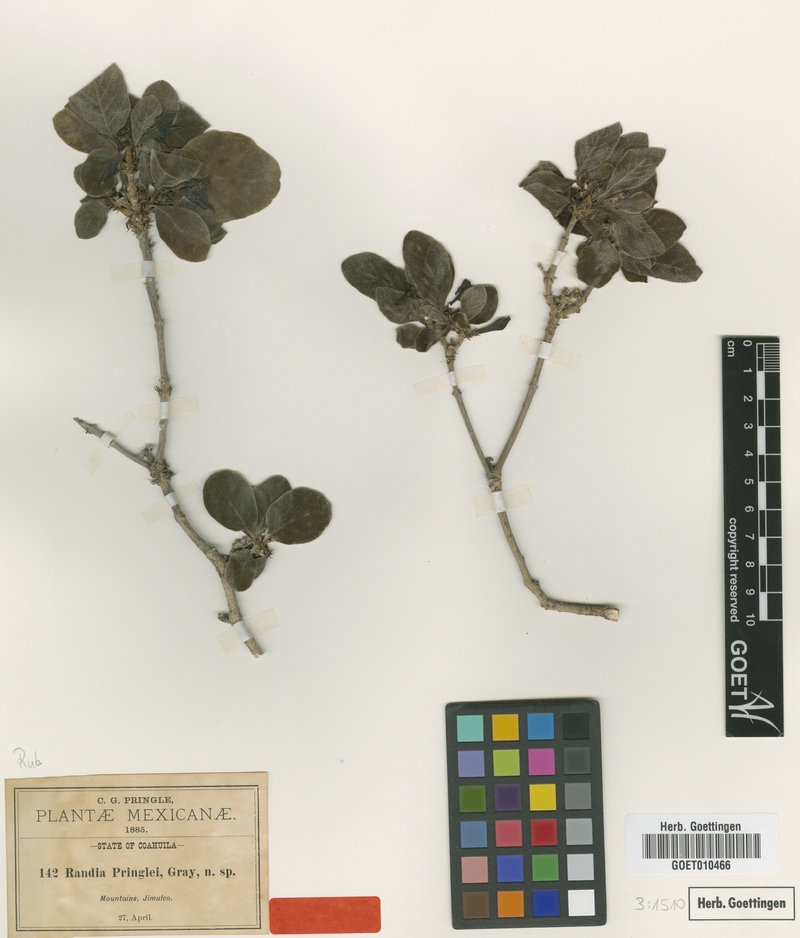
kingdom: Plantae
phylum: Tracheophyta
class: Magnoliopsida
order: Gentianales
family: Rubiaceae
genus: Randia
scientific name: Randia pringlei
